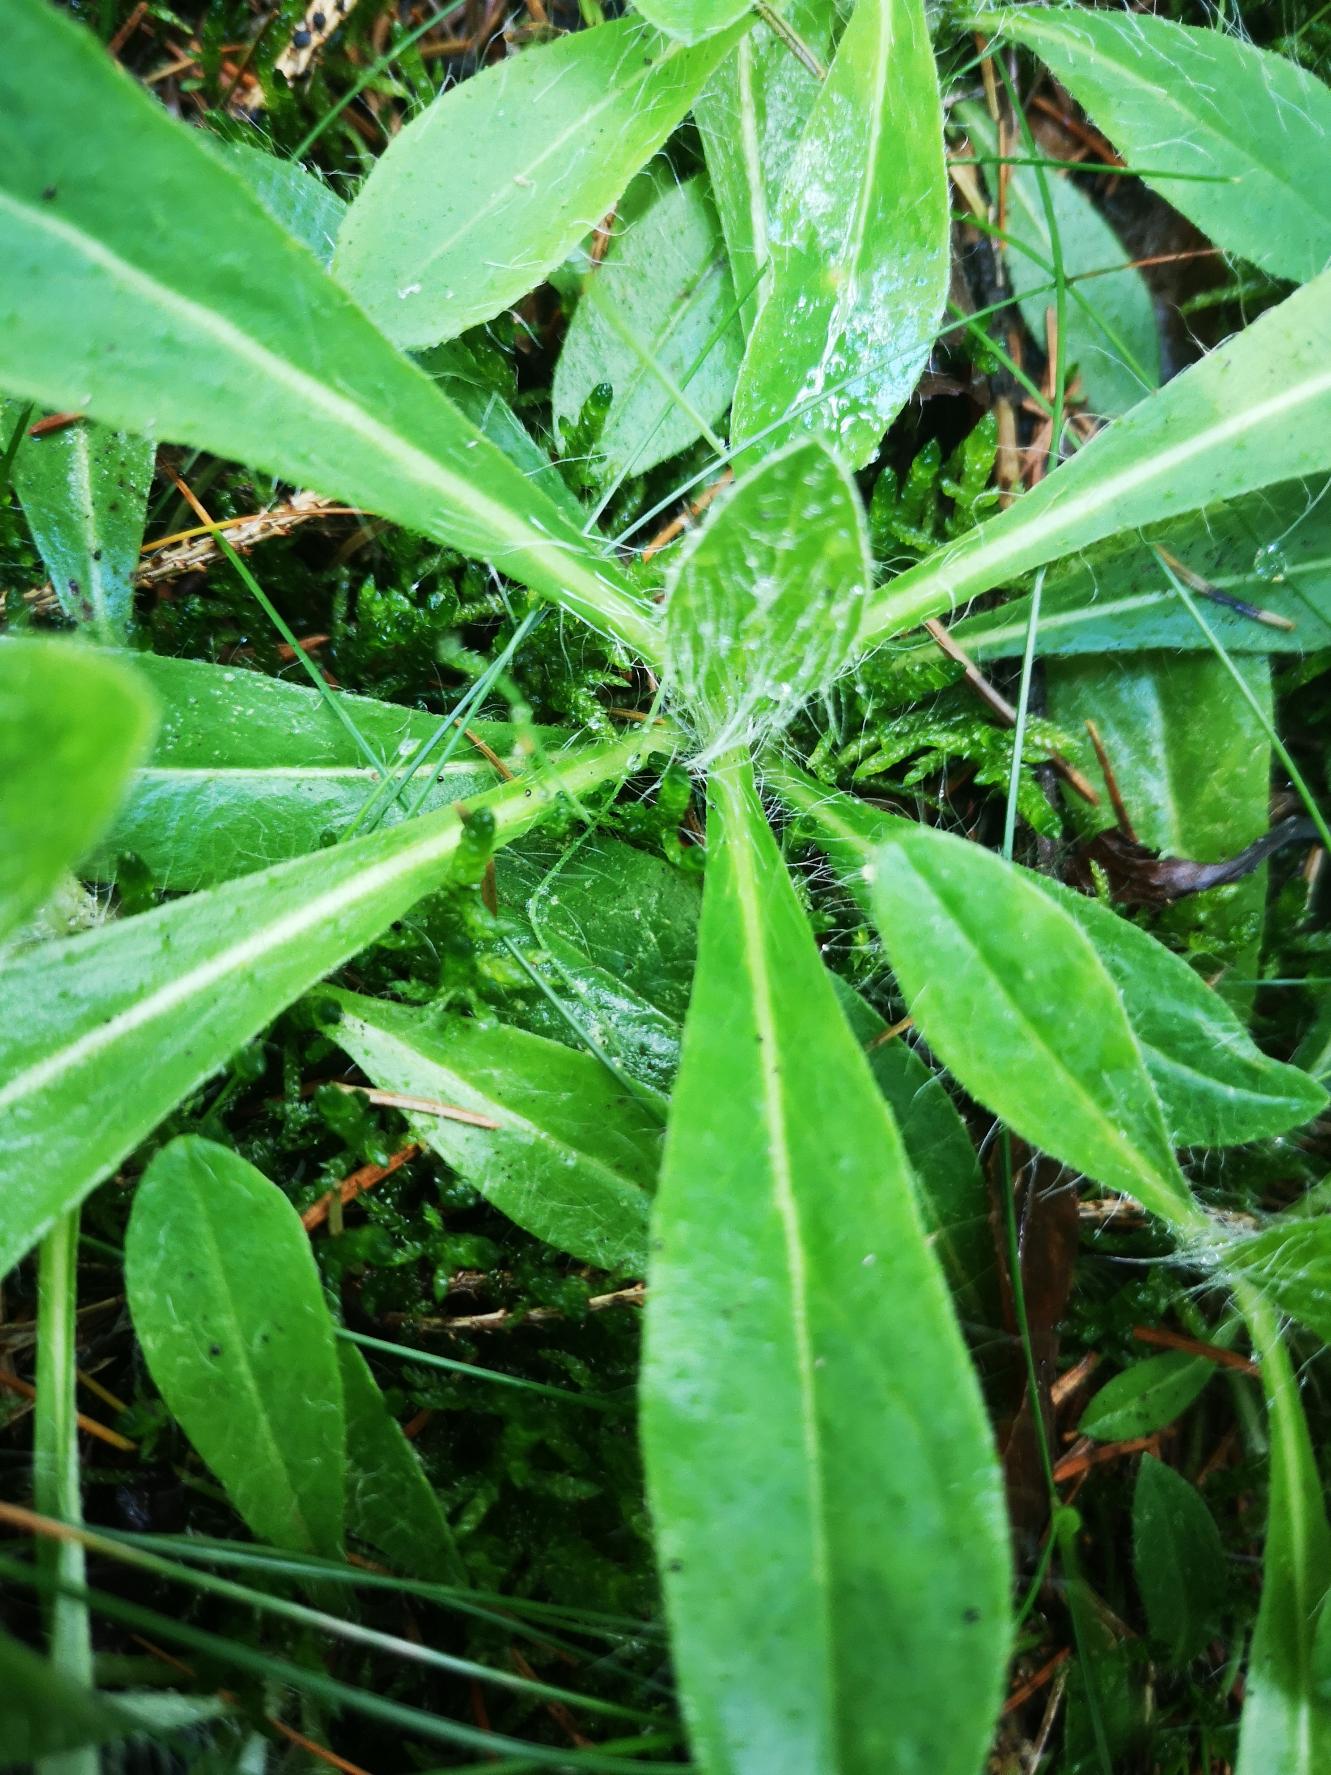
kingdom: Plantae
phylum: Tracheophyta
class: Magnoliopsida
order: Asterales
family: Asteraceae
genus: Pilosella
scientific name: Pilosella officinarum
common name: Håret høgeurt
